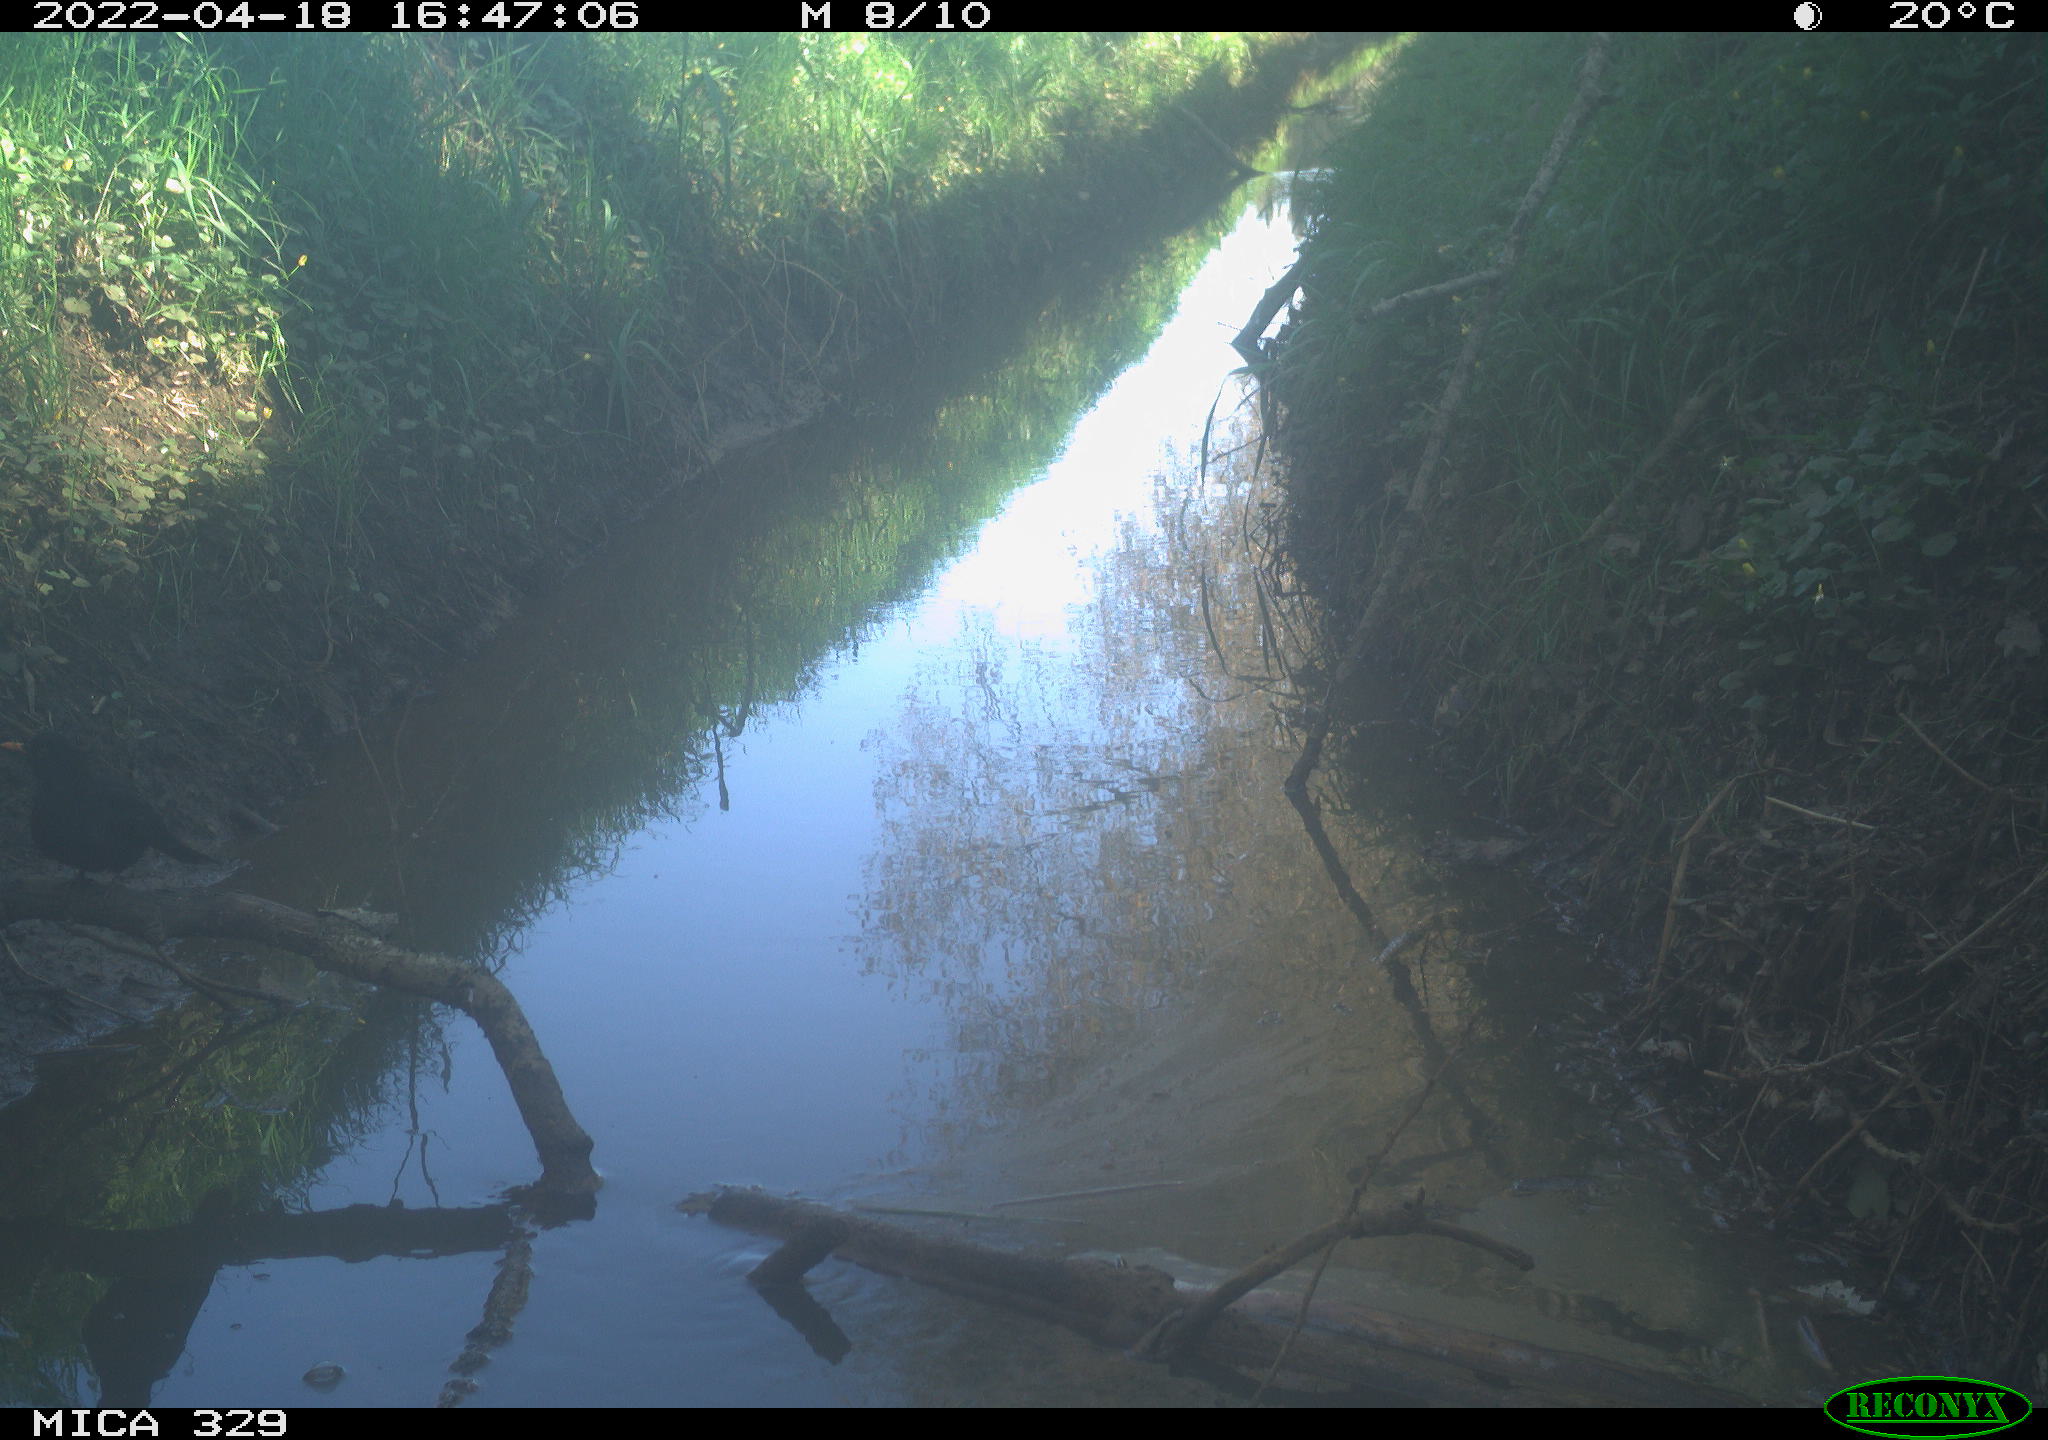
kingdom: Animalia
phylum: Chordata
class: Aves
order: Passeriformes
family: Turdidae
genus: Turdus
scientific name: Turdus merula
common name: Common blackbird
